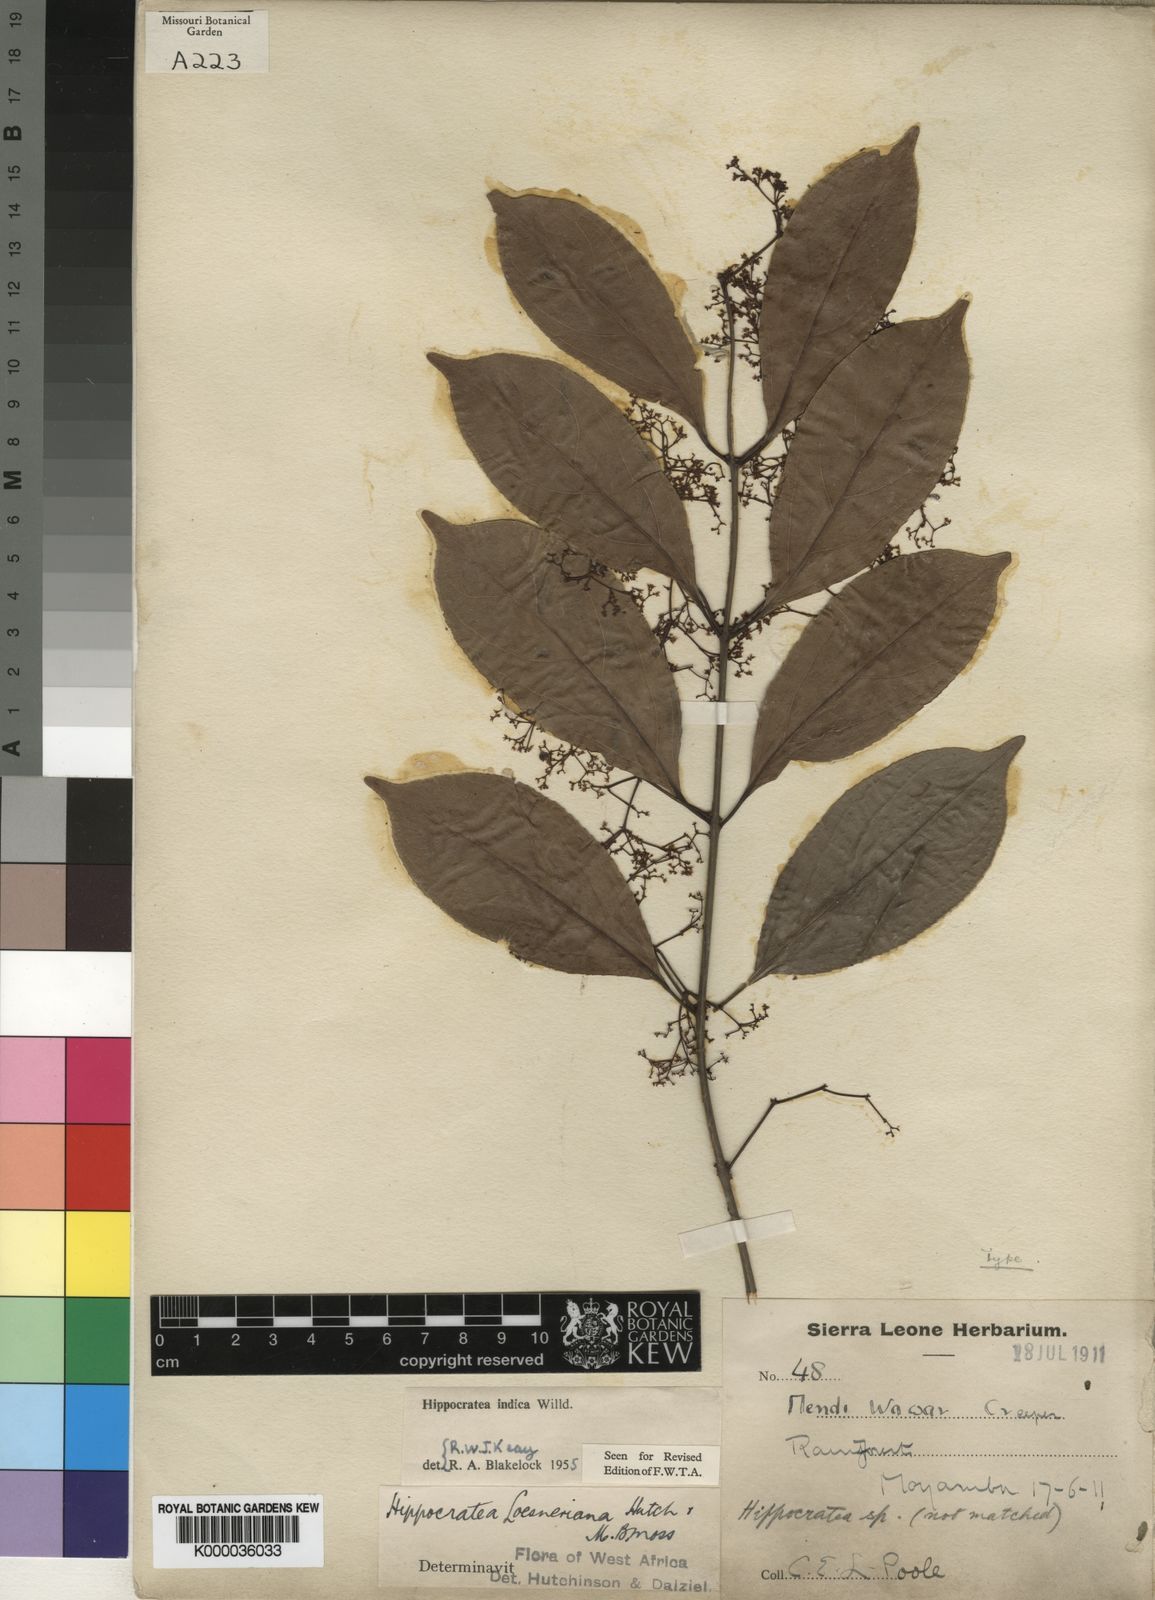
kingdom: Plantae
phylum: Tracheophyta
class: Magnoliopsida
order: Celastrales
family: Celastraceae
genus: Reissantia
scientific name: Reissantia
